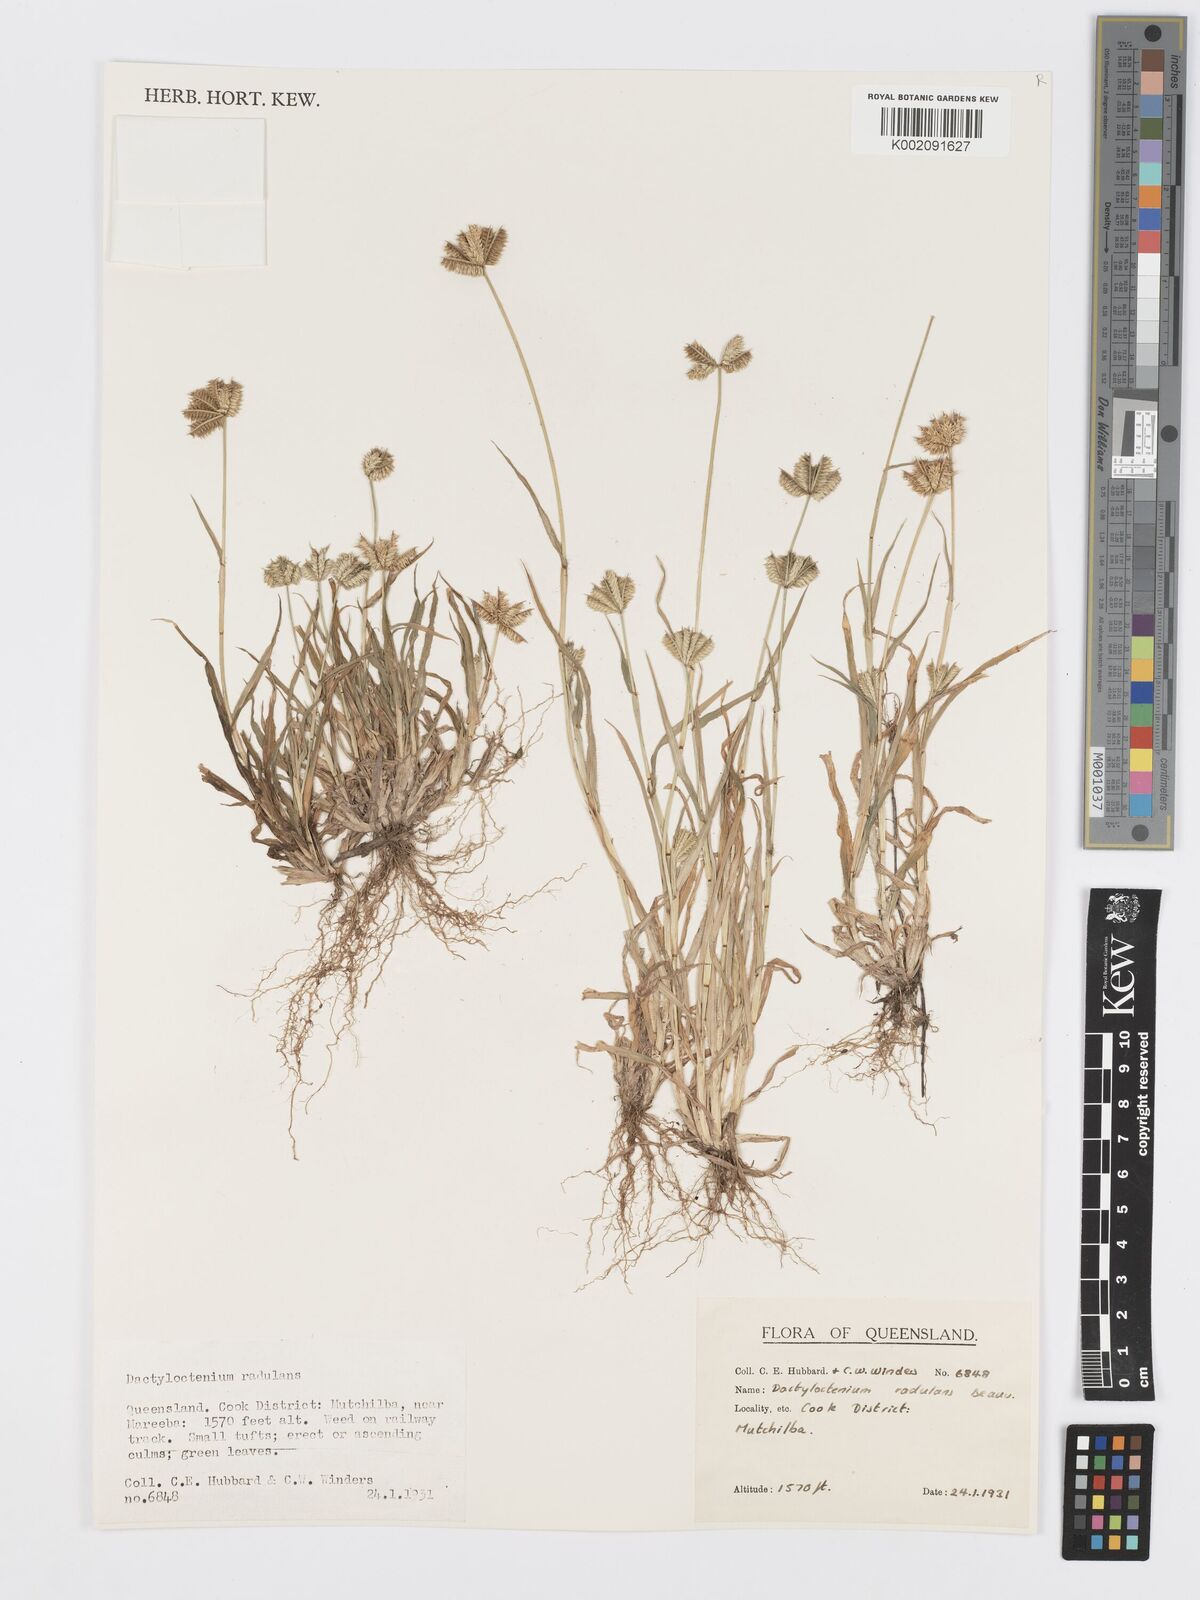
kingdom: Plantae
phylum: Tracheophyta
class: Liliopsida
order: Poales
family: Poaceae
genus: Dactyloctenium
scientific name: Dactyloctenium radulans
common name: Button-grass
